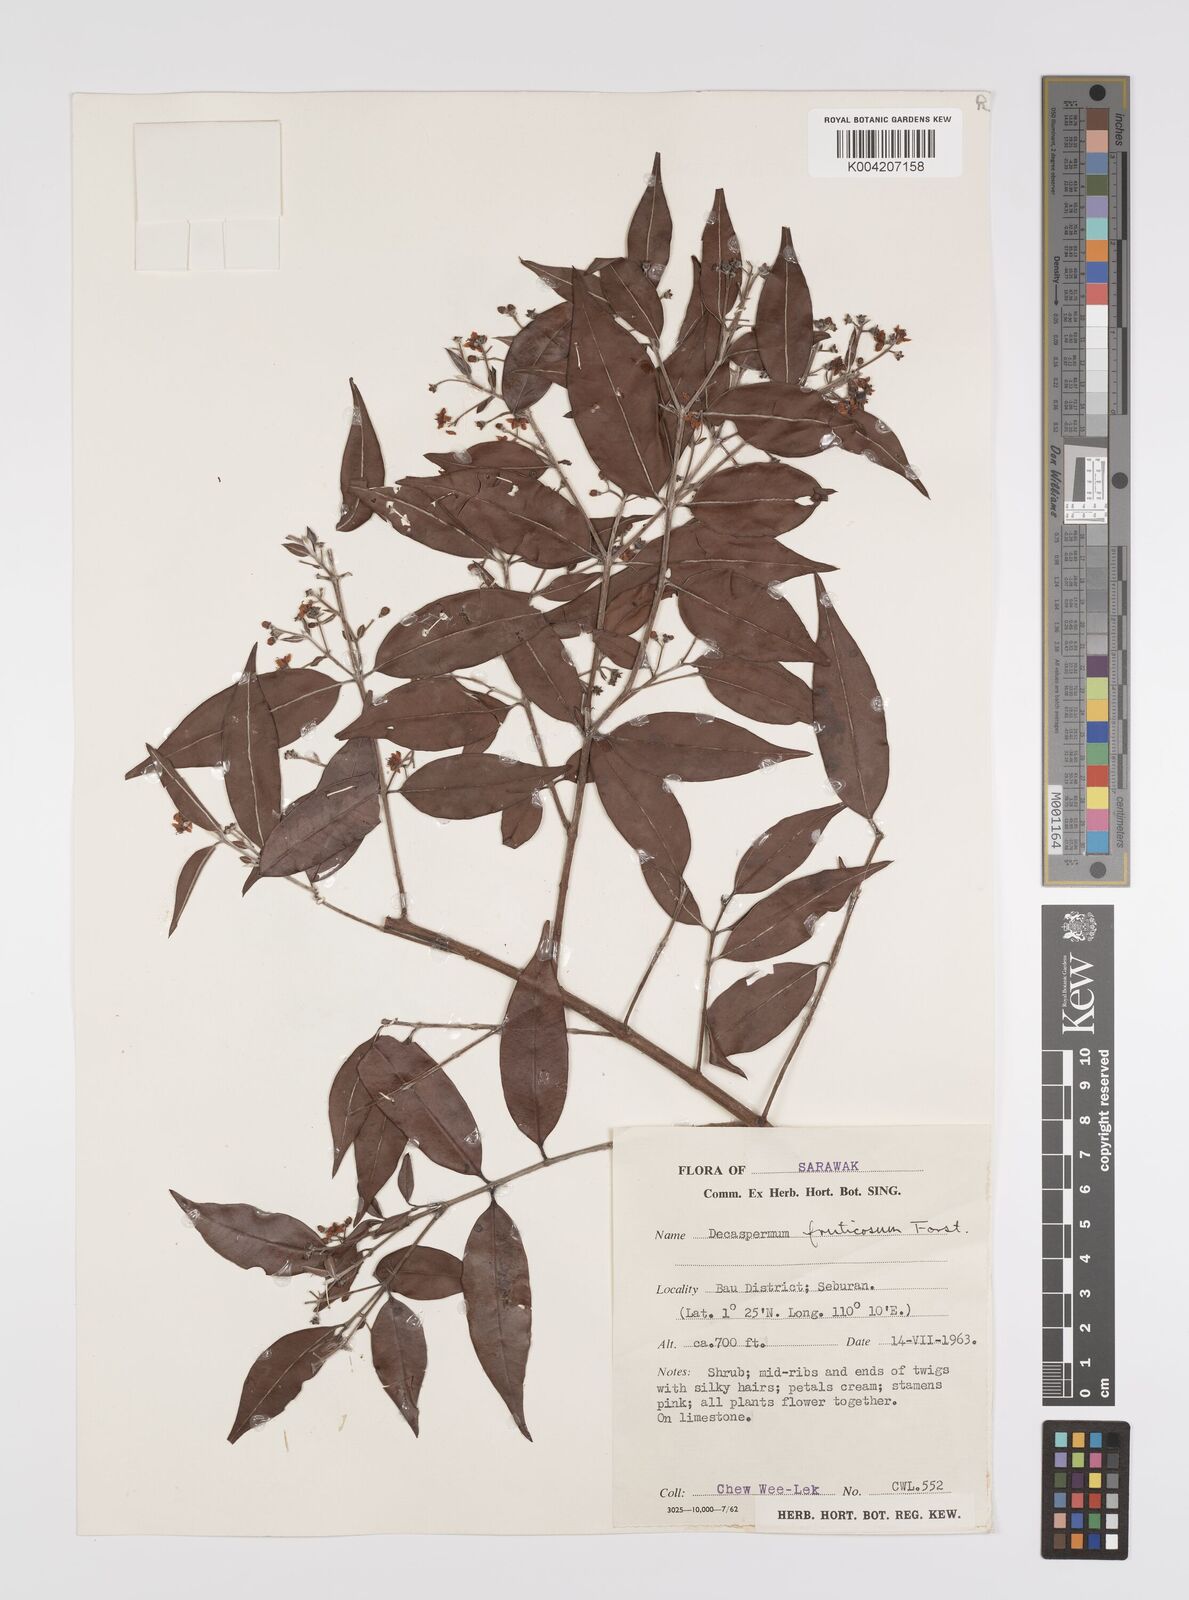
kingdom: Plantae
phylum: Tracheophyta
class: Magnoliopsida
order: Myrtales
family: Myrtaceae
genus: Decaspermum
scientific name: Decaspermum fruticosum
